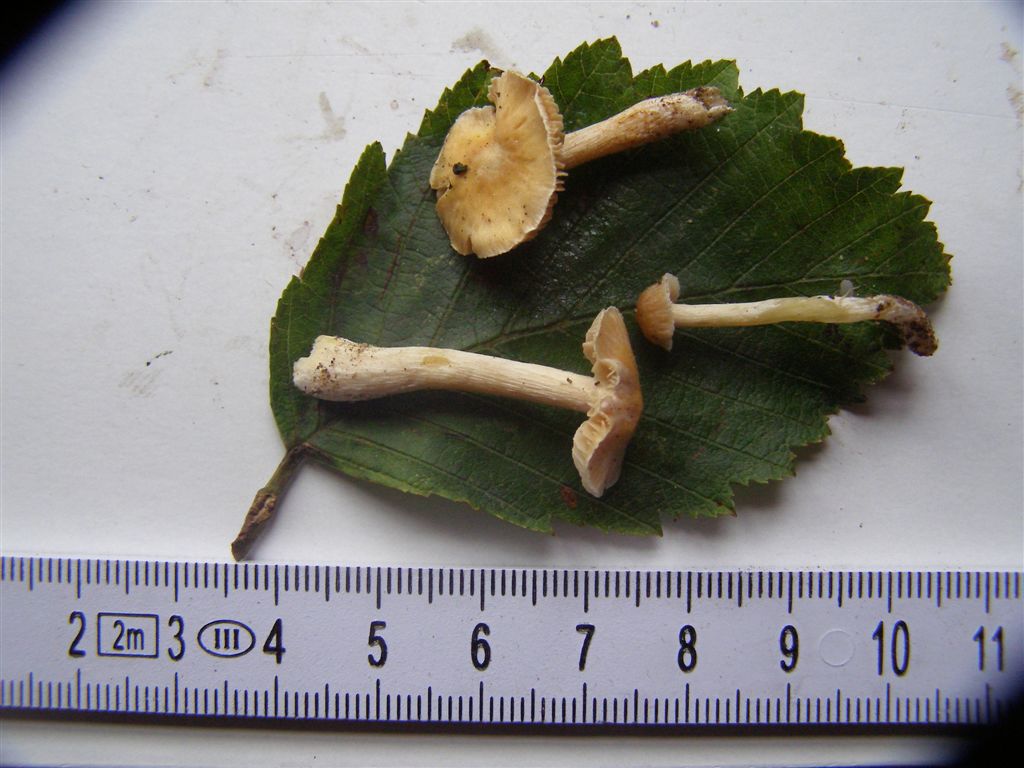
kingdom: Fungi
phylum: Basidiomycota
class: Agaricomycetes
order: Agaricales
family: Cortinariaceae
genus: Cortinarius
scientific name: Cortinarius croceocristallinus
